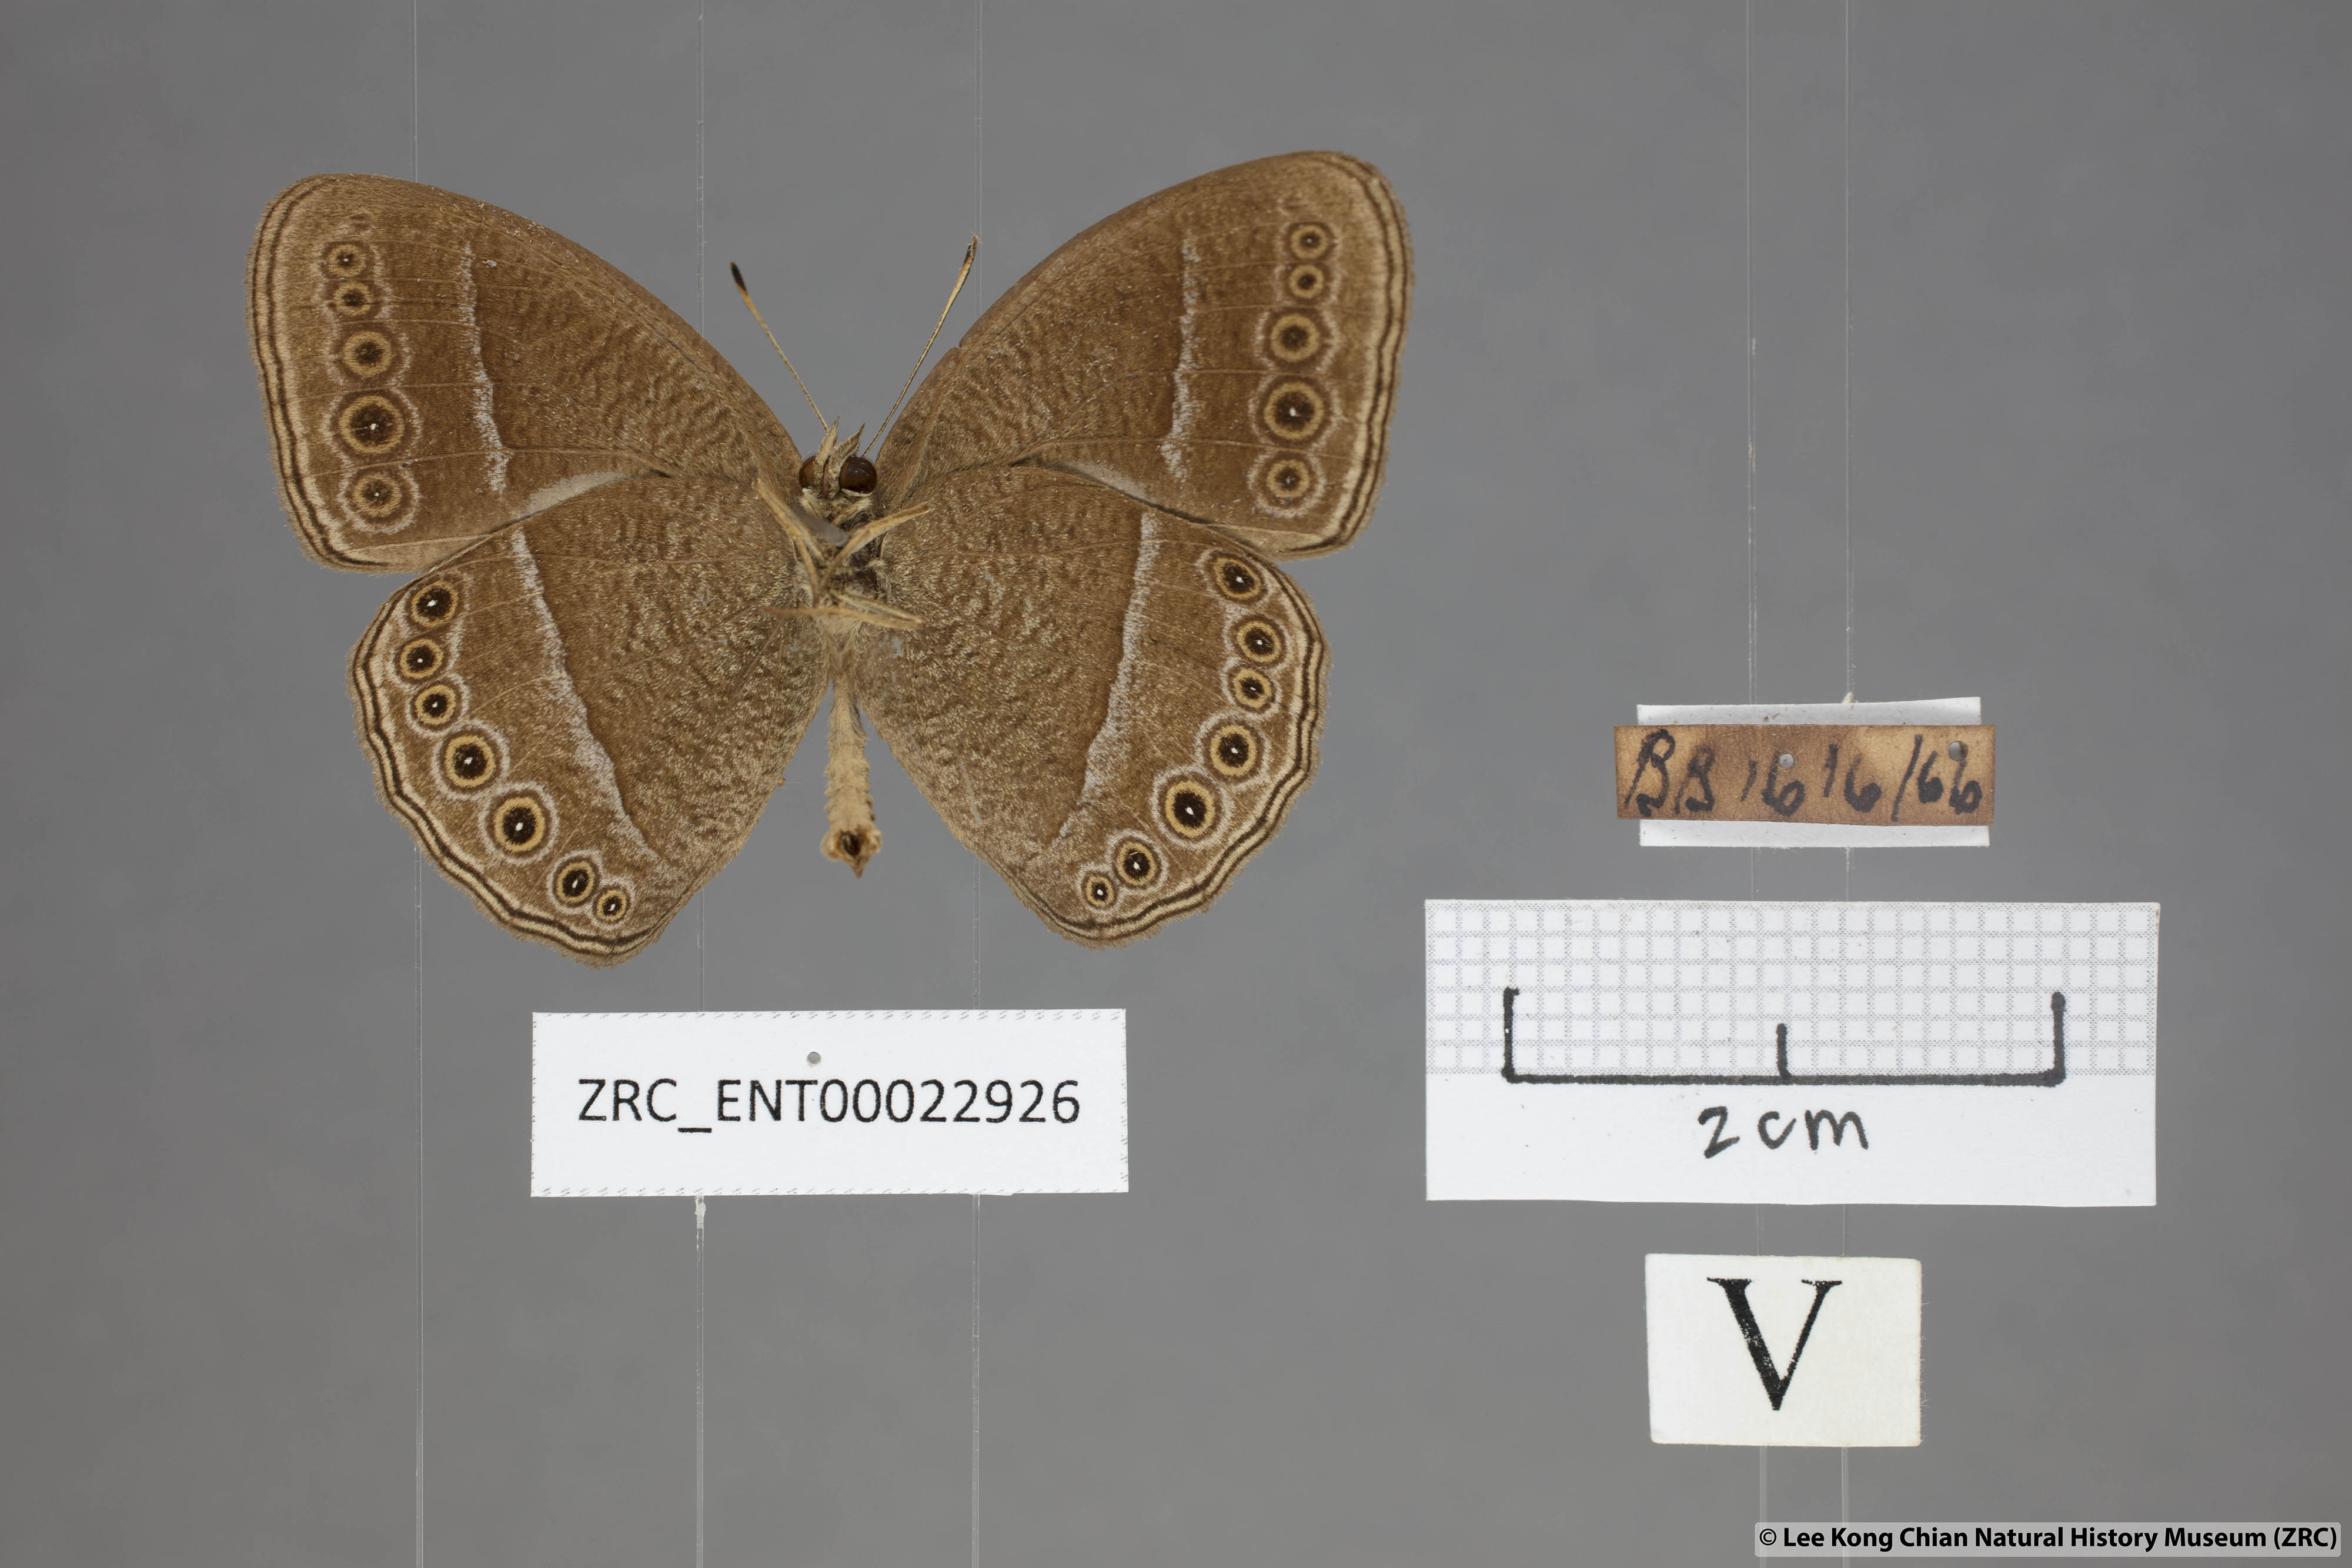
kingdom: Animalia
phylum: Arthropoda
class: Insecta
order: Lepidoptera
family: Nymphalidae
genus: Mycalesis
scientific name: Mycalesis janardana
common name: Common bush brown
